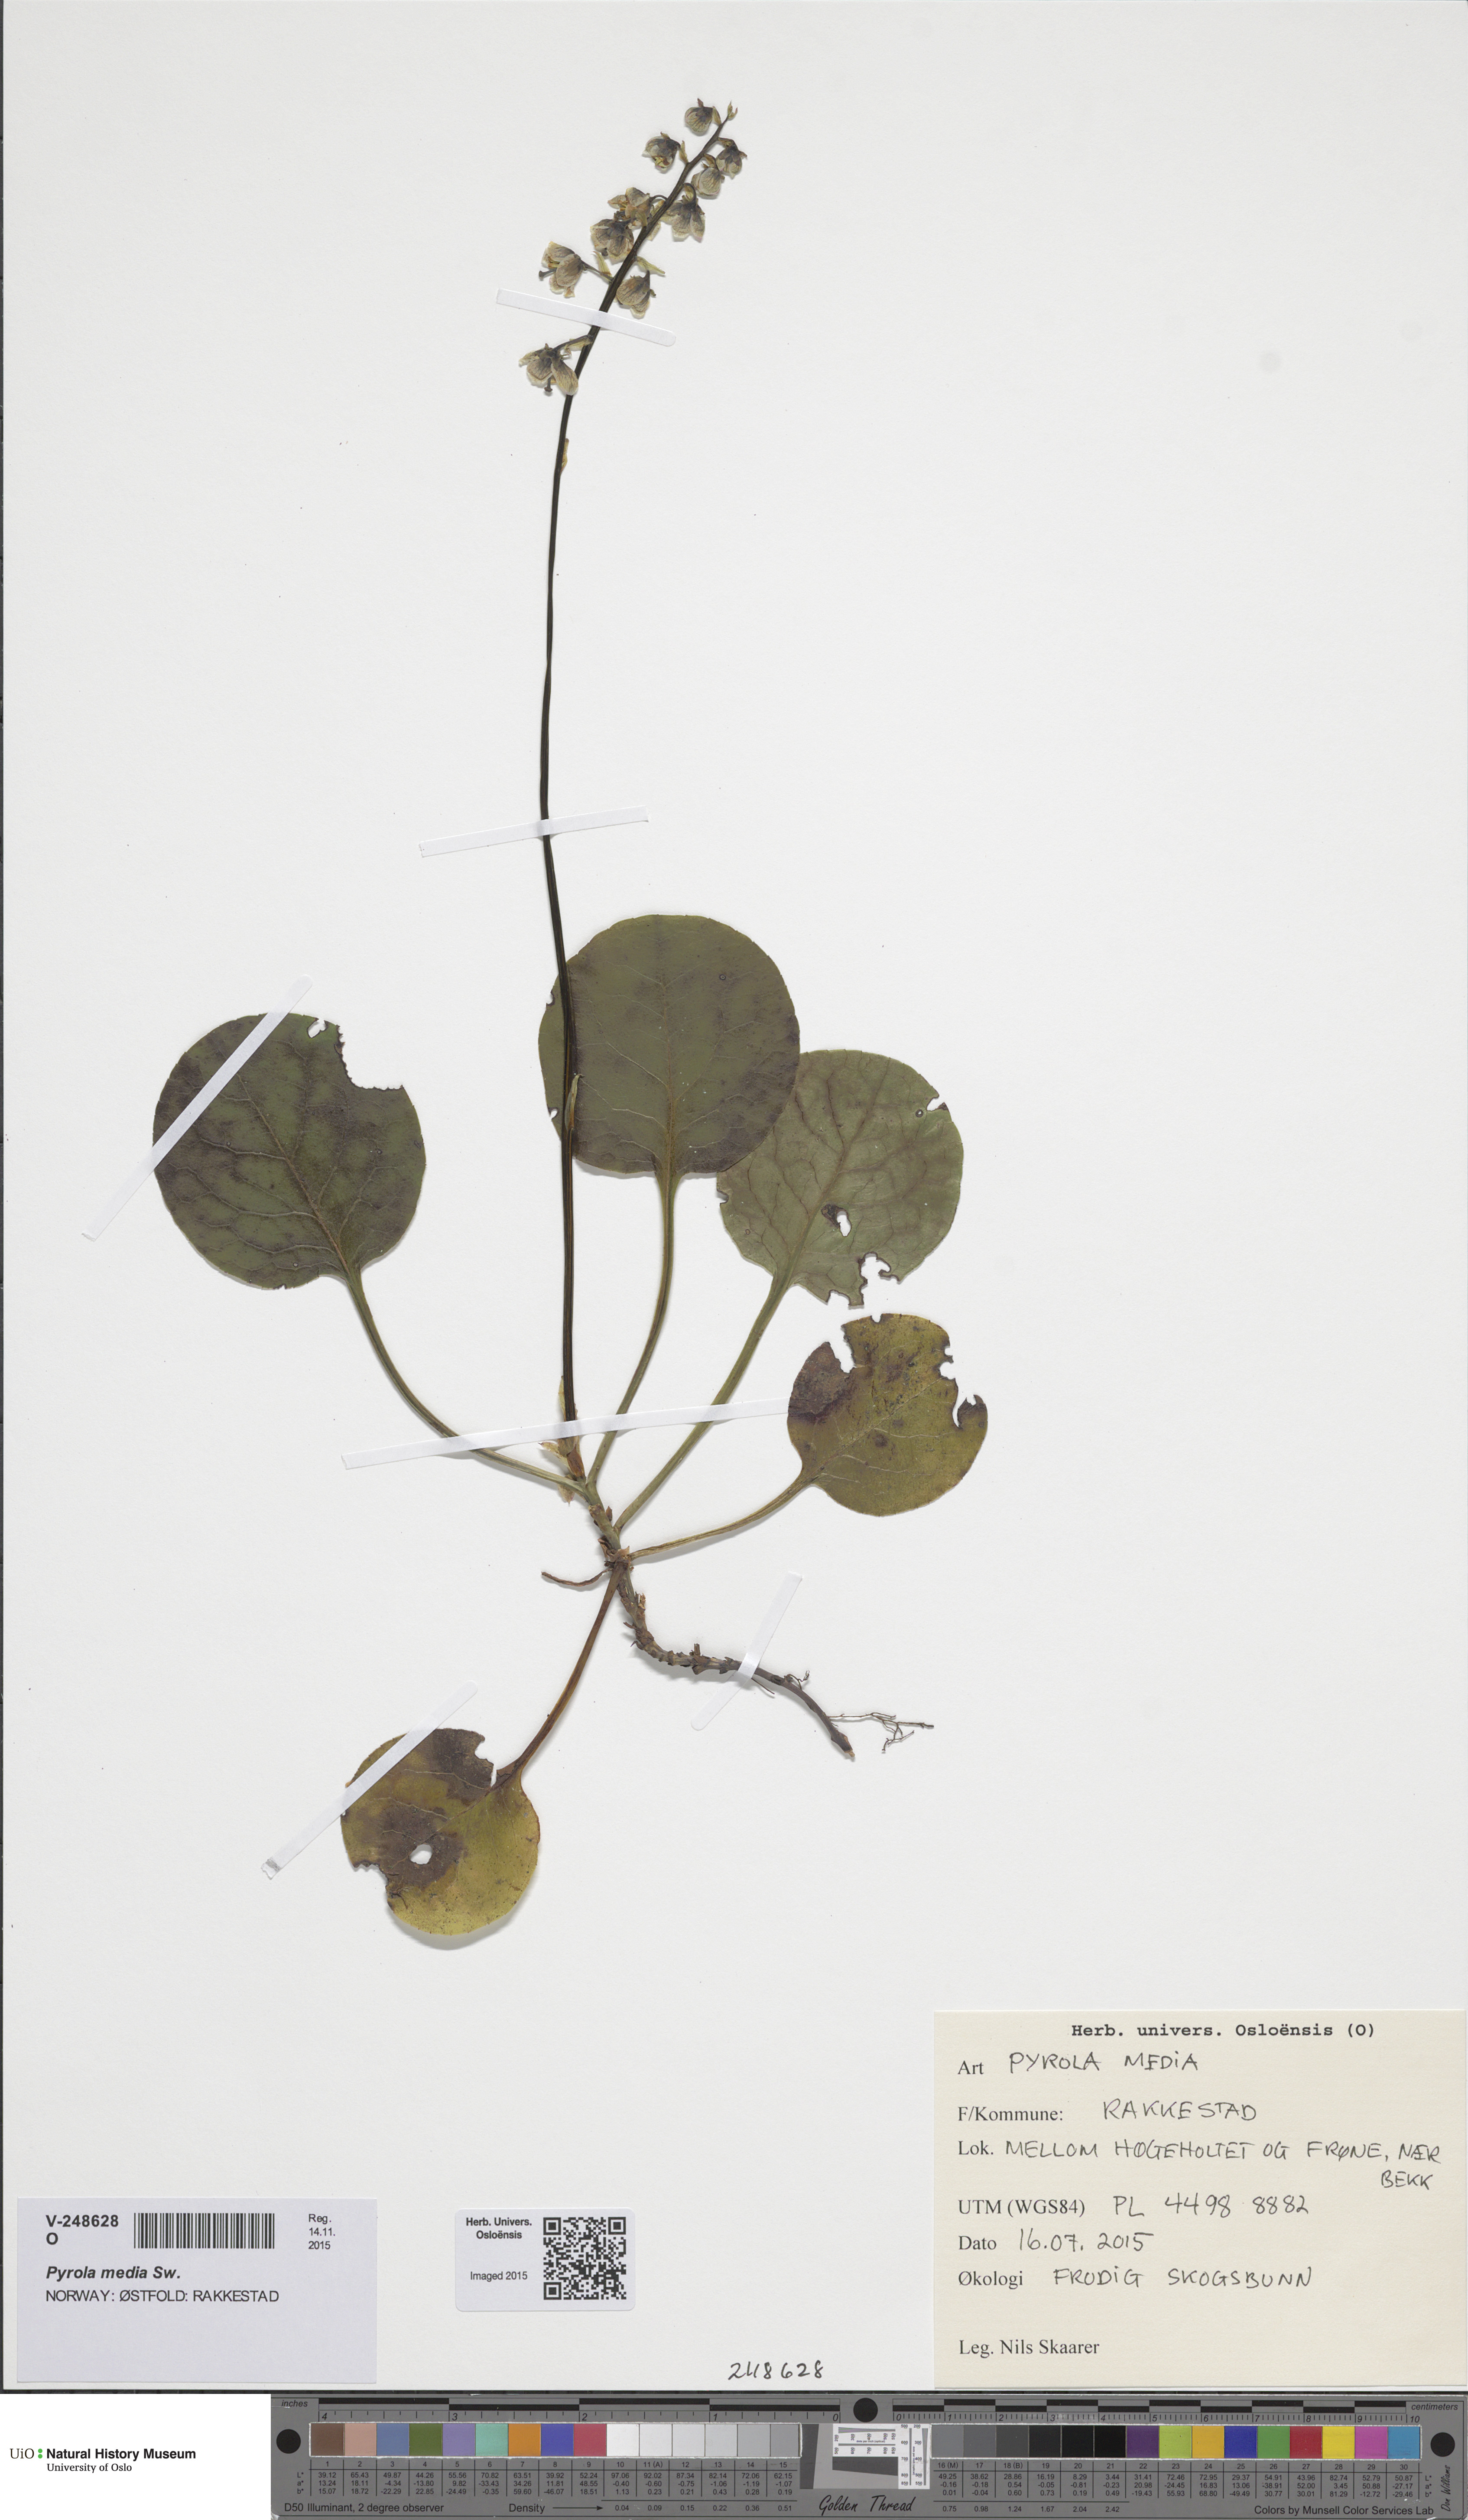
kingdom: Plantae
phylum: Tracheophyta
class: Magnoliopsida
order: Ericales
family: Ericaceae
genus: Pyrola
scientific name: Pyrola media
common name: Intermediate wintergreen
